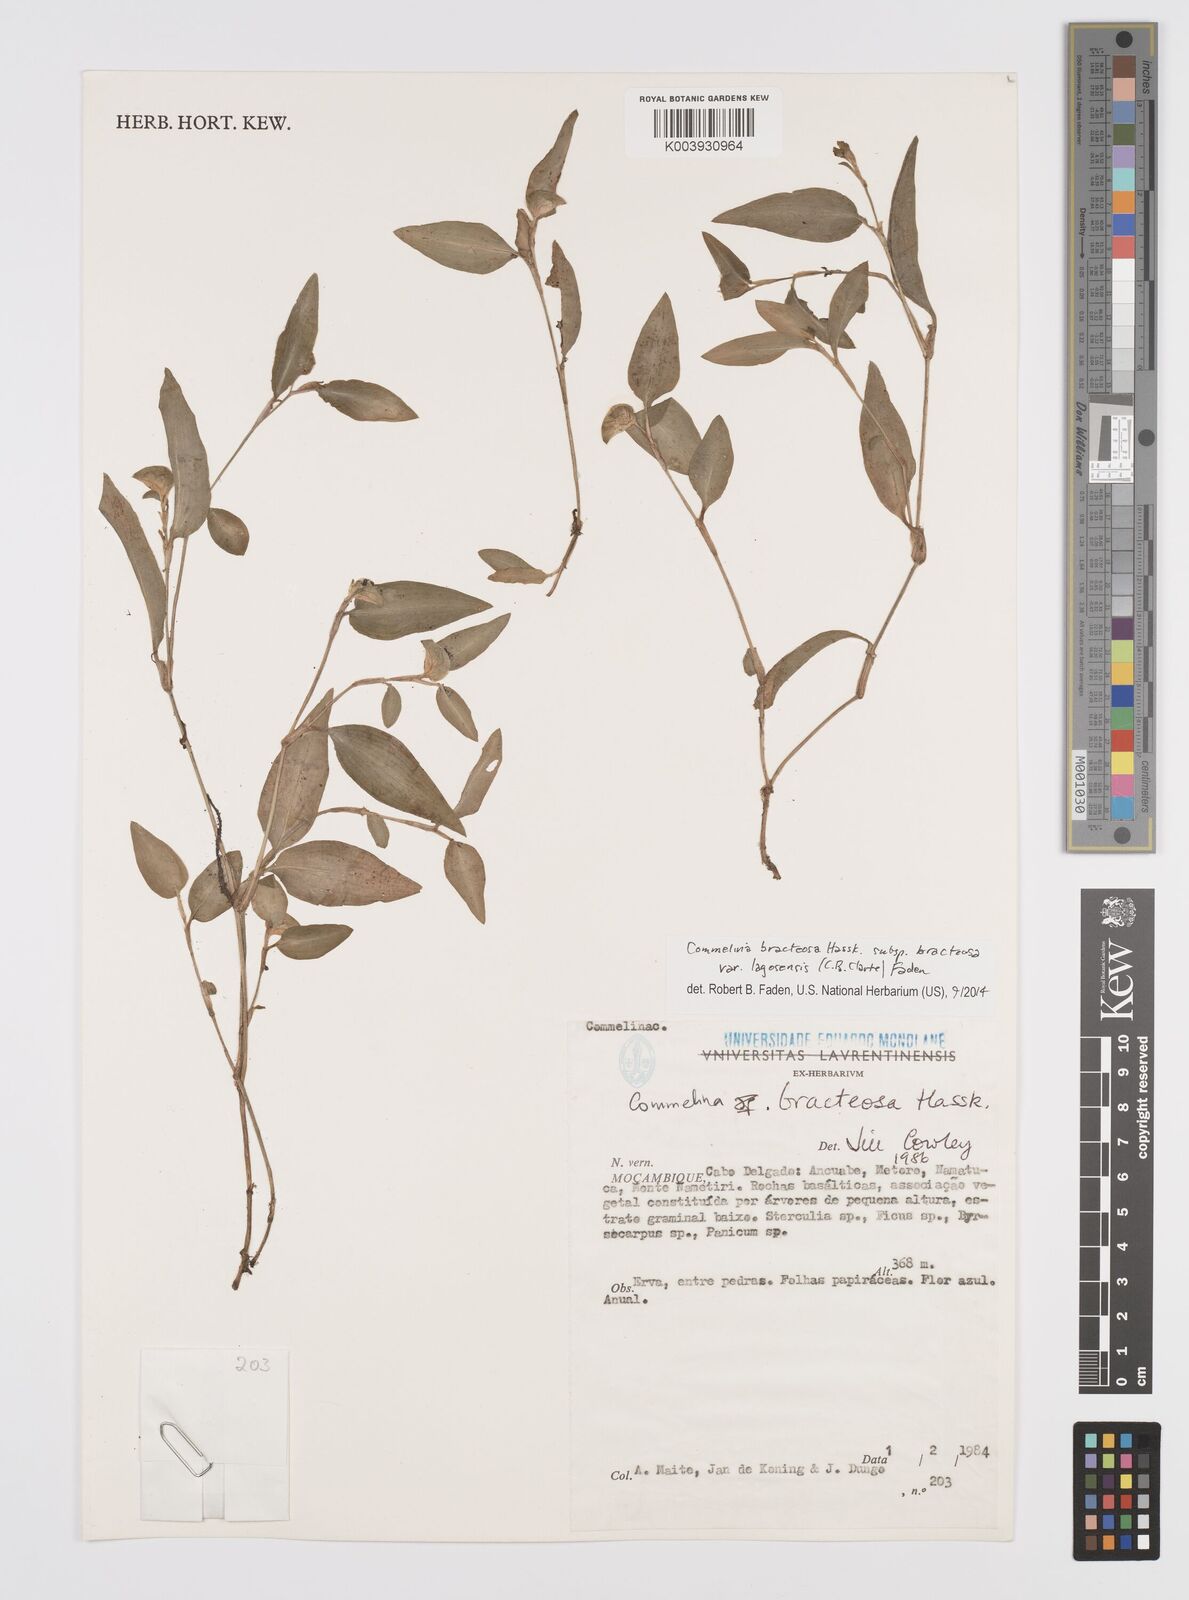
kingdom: Plantae
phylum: Tracheophyta
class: Liliopsida
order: Commelinales
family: Commelinaceae
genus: Commelina
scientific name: Commelina bracteosa
